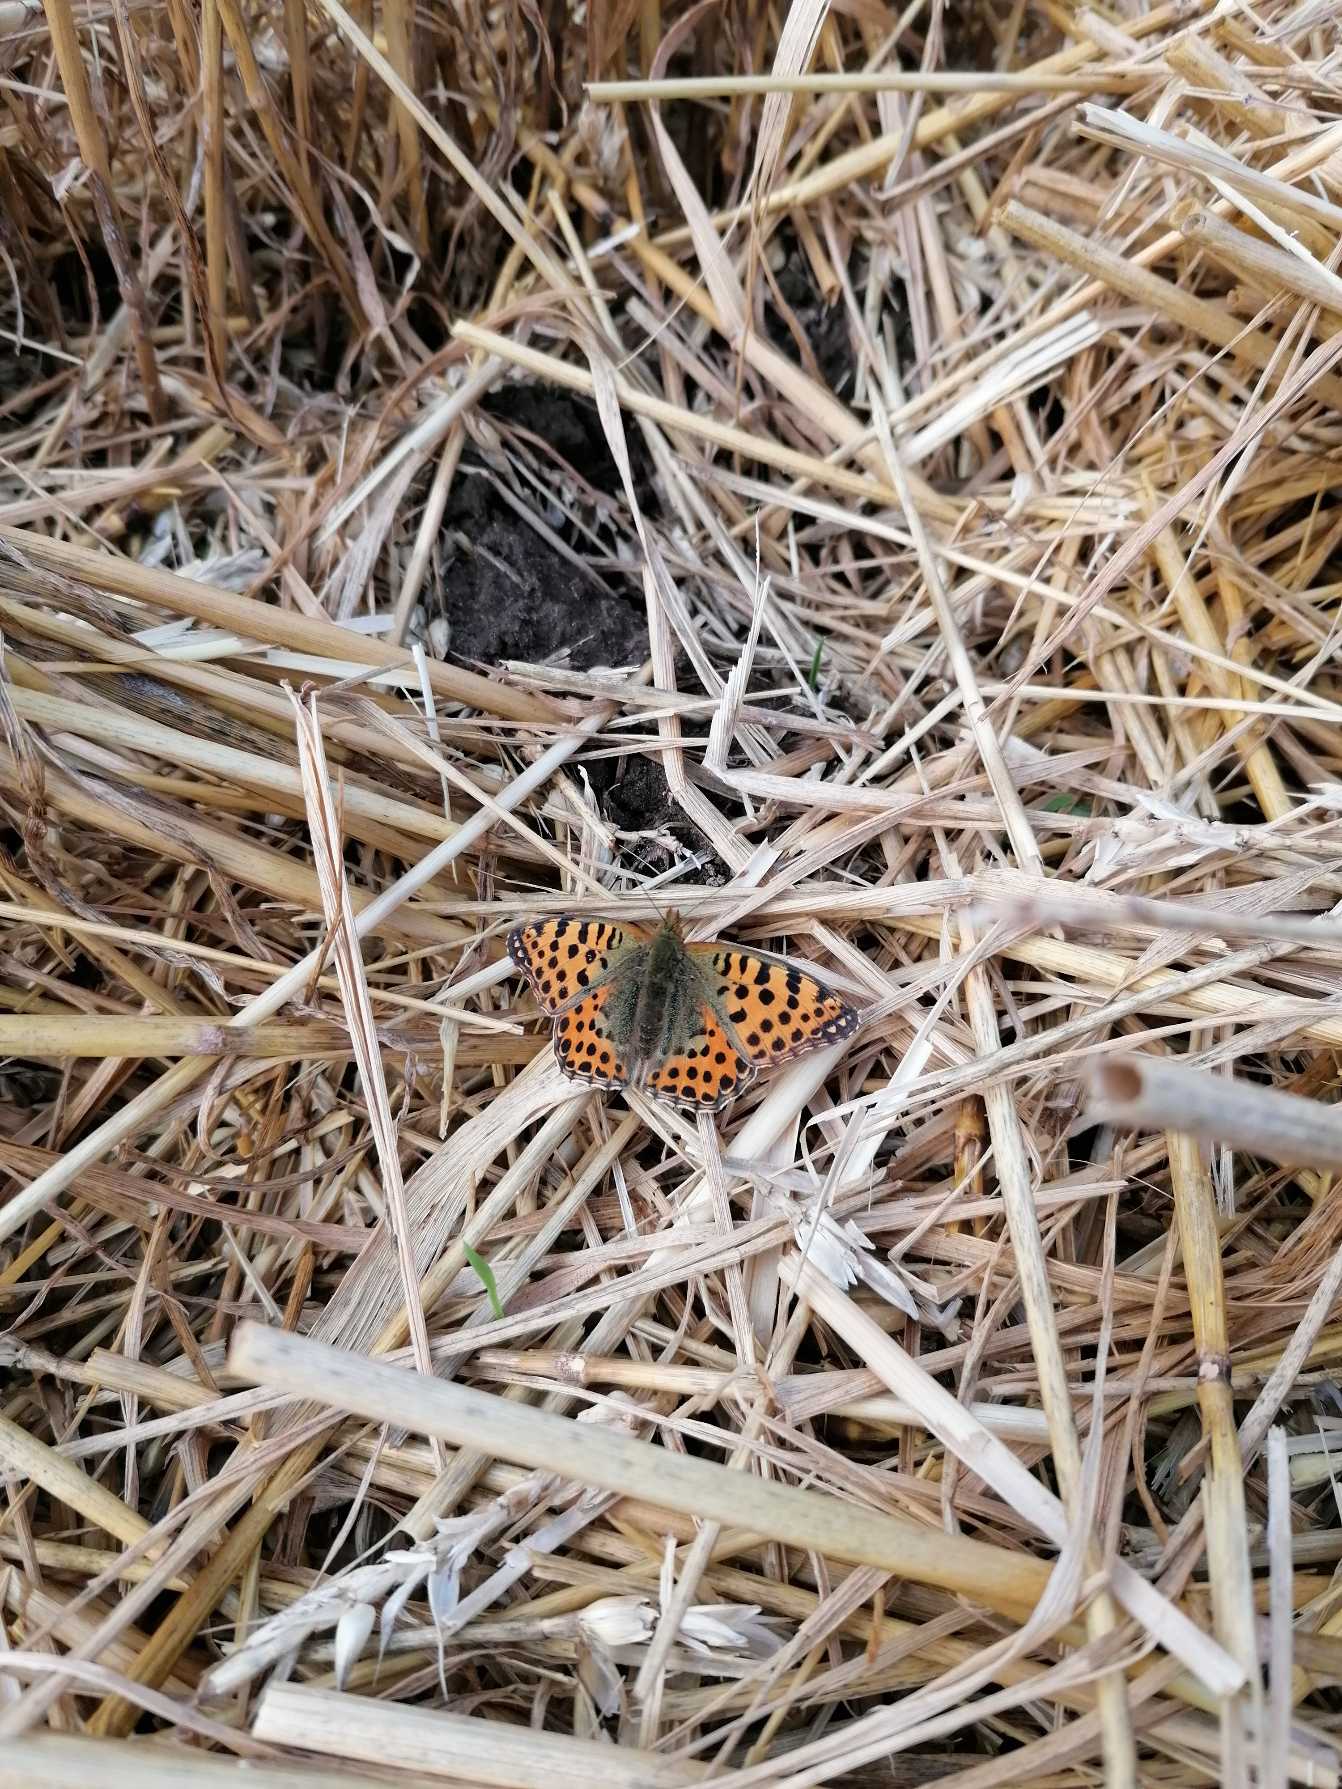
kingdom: Animalia
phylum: Arthropoda
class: Insecta
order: Lepidoptera
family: Nymphalidae
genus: Issoria
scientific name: Issoria lathonia
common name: Storplettet perlemorsommerfugl
